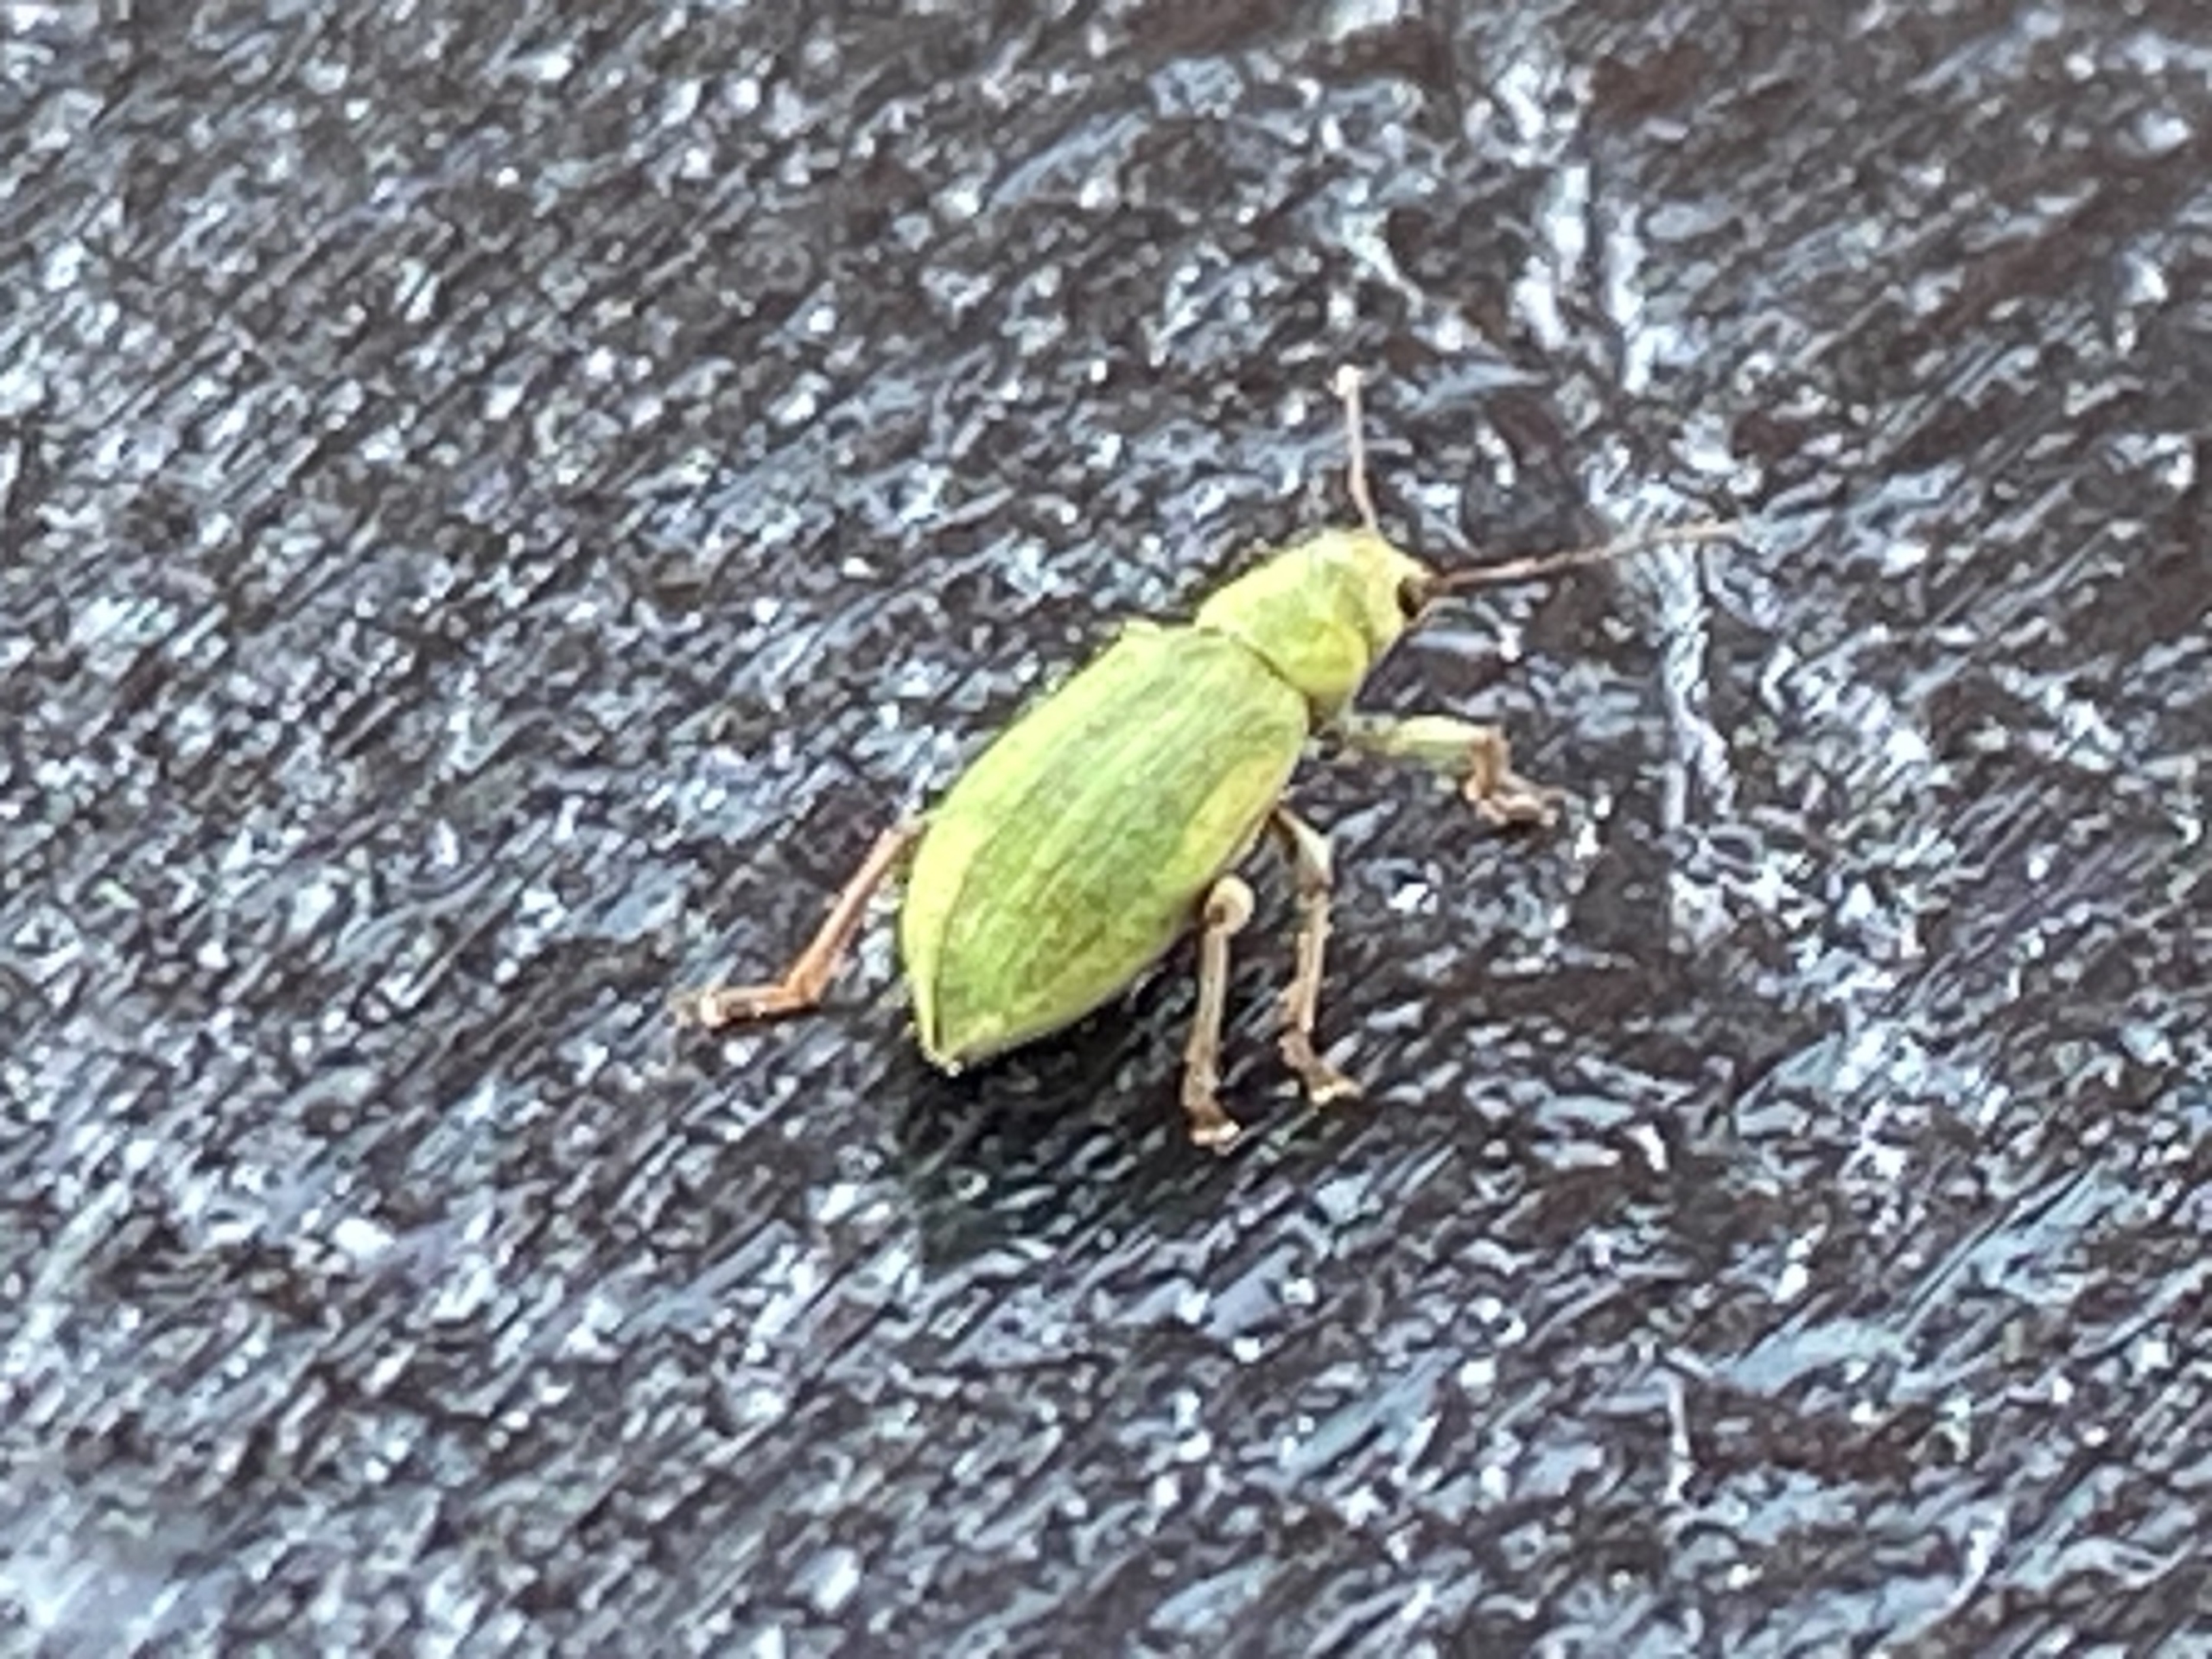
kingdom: Animalia
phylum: Arthropoda
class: Insecta
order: Coleoptera
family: Curculionidae
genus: Pachyrhinus
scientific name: Pachyrhinus lethierryi
